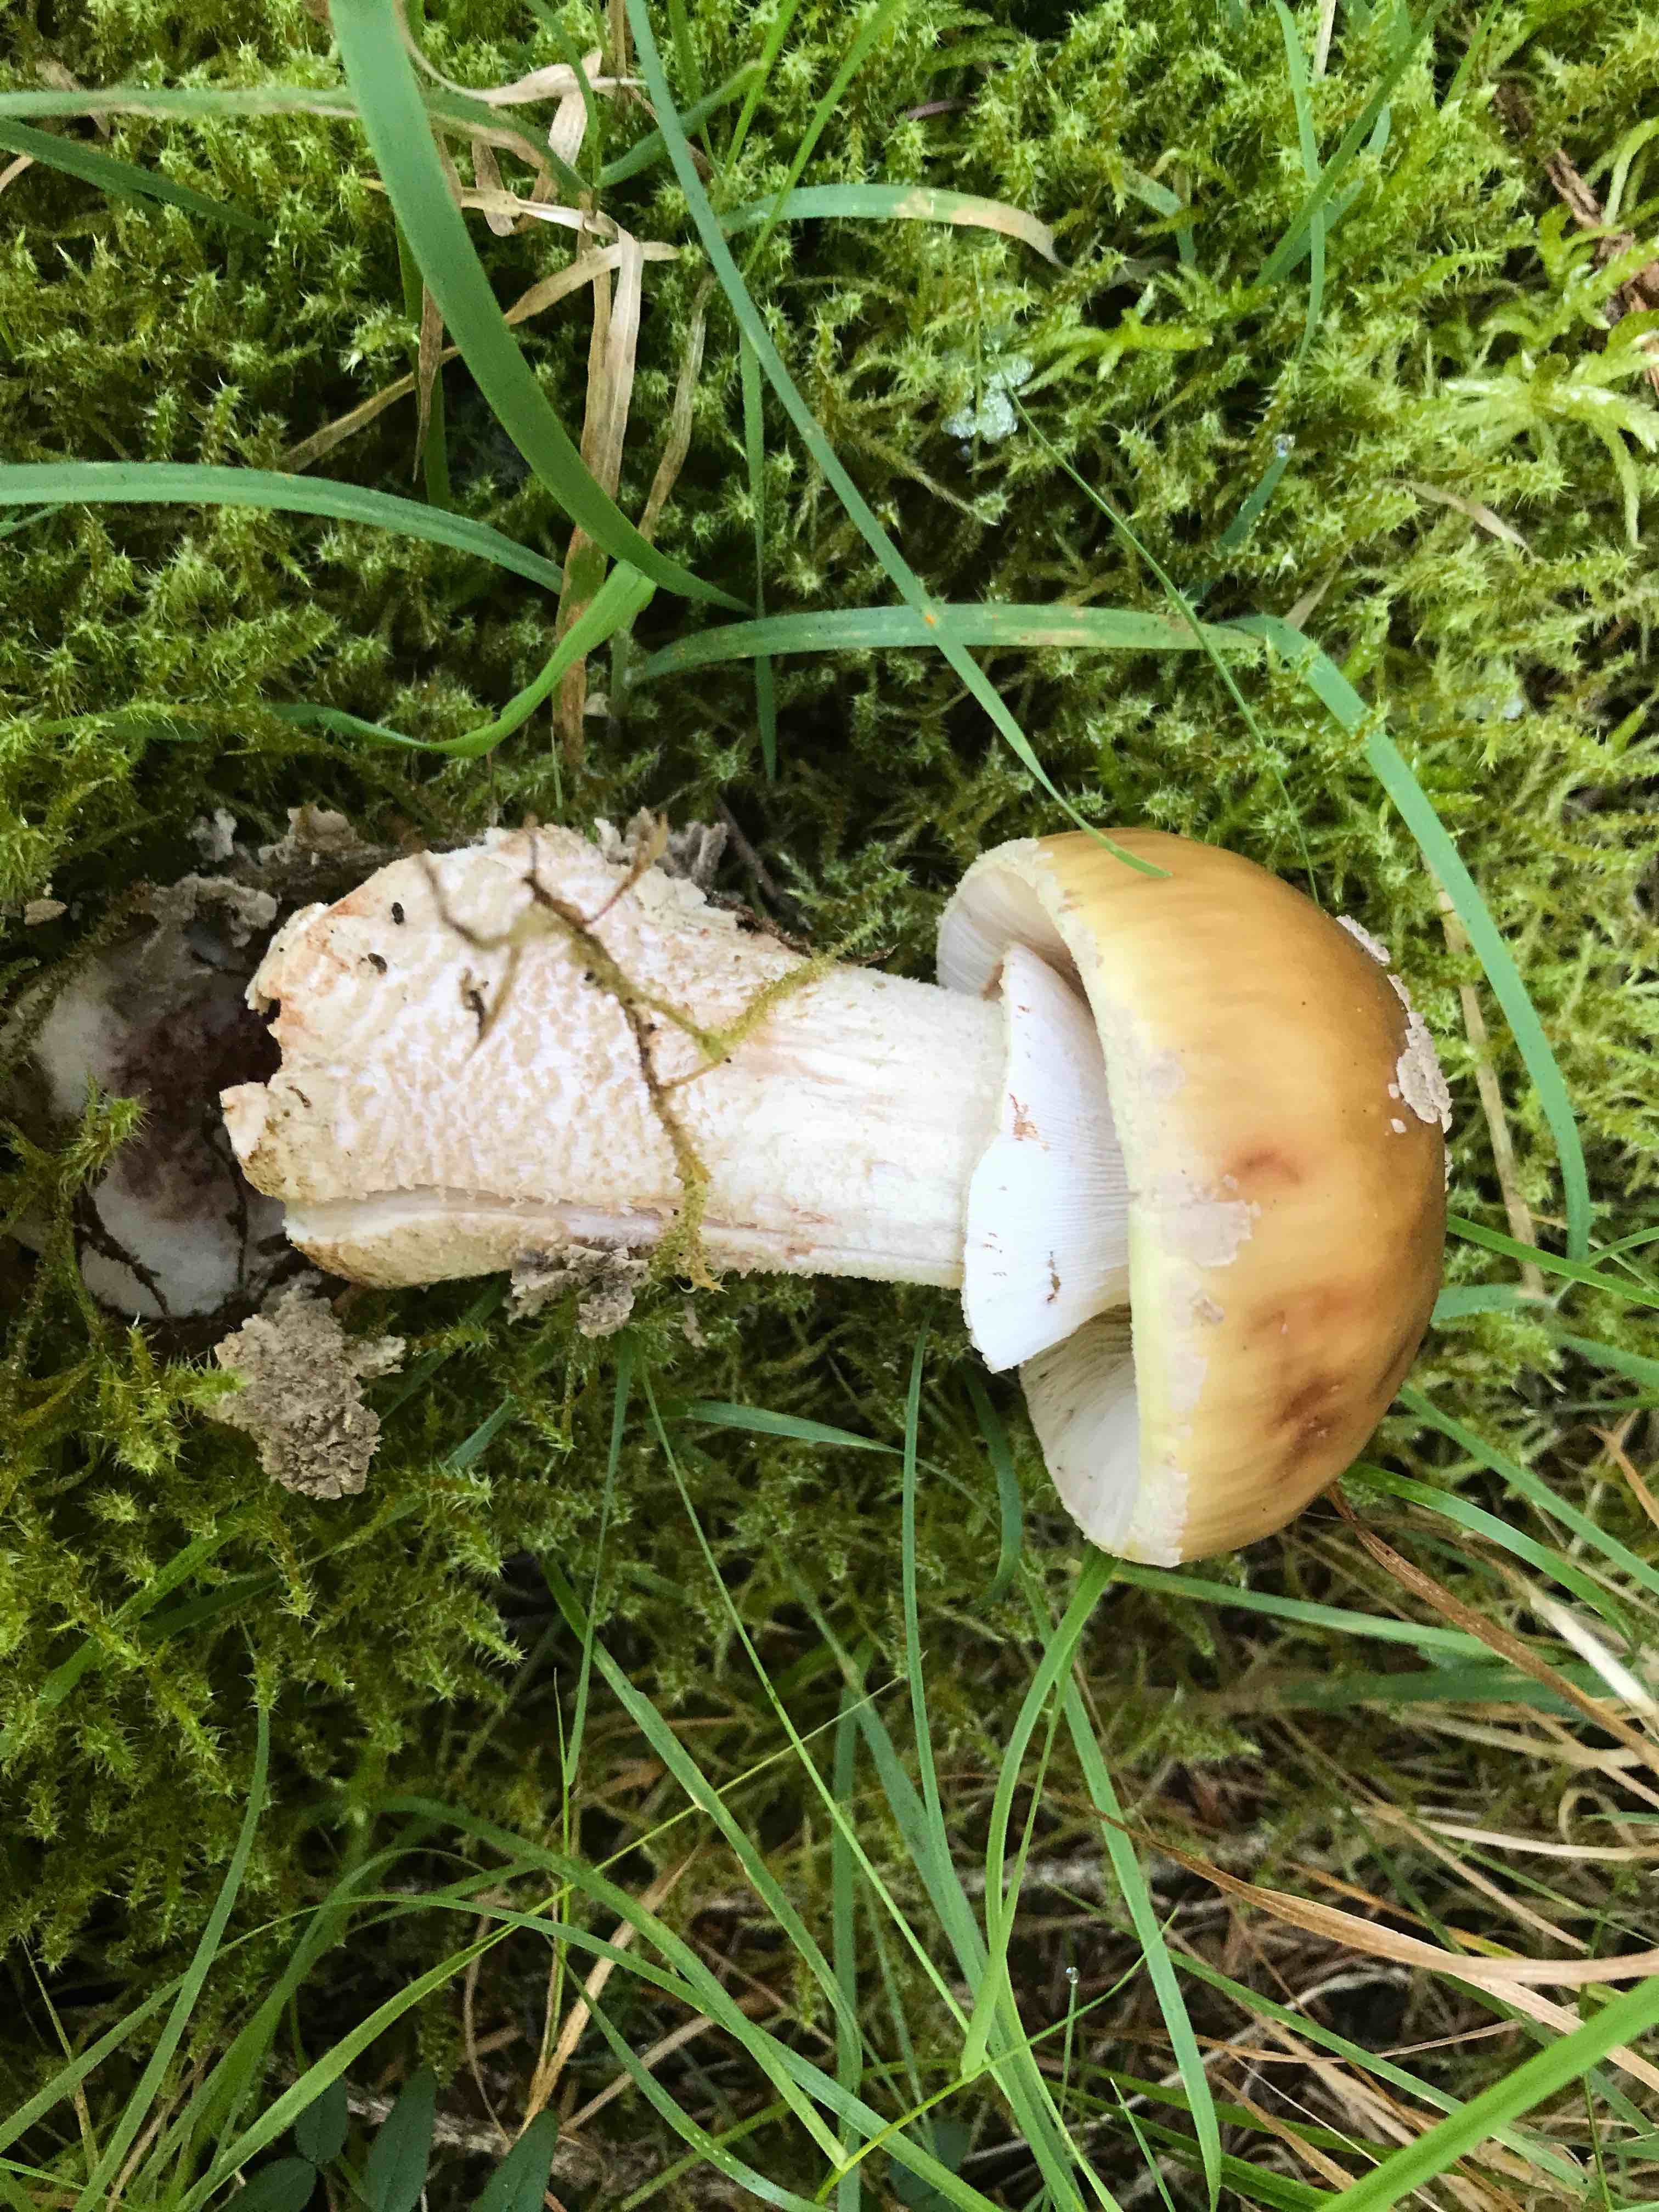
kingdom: Fungi
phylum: Basidiomycota
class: Agaricomycetes
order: Agaricales
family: Amanitaceae
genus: Amanita
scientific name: Amanita rubescens
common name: rødmende fluesvamp
